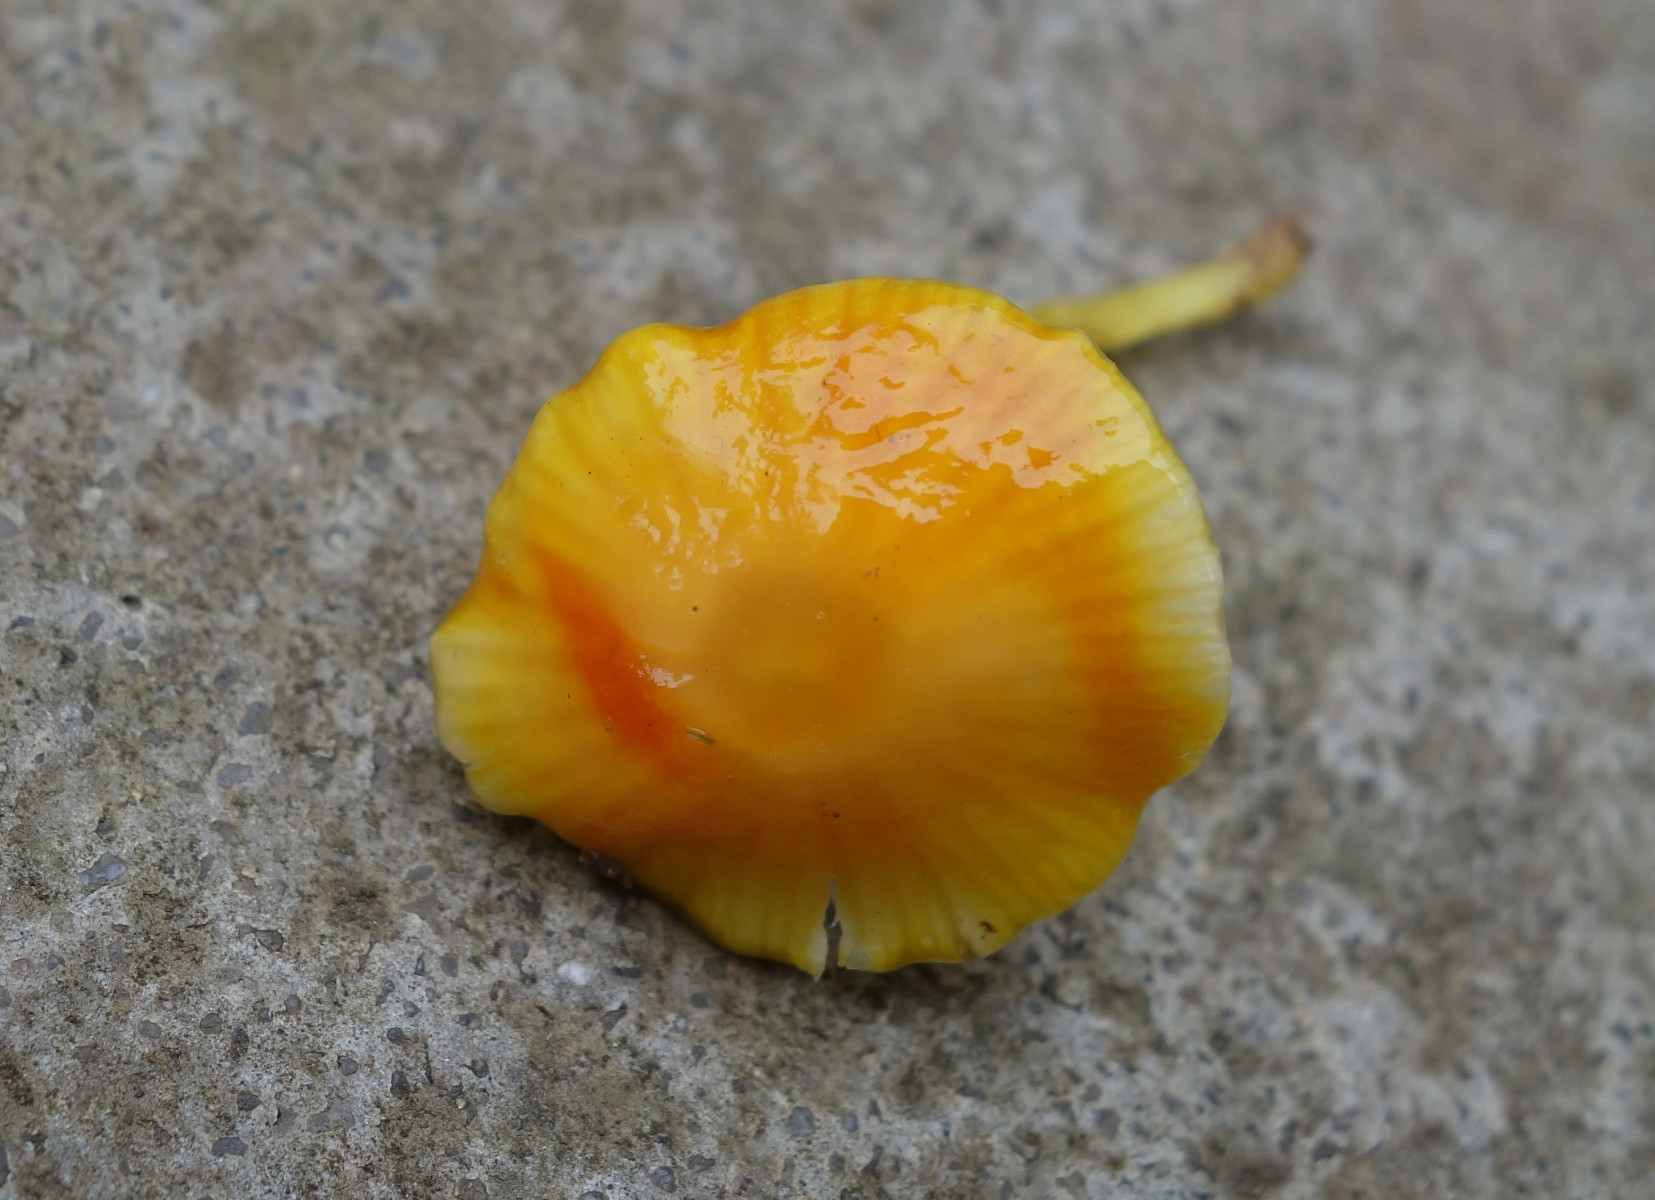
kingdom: Fungi
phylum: Basidiomycota
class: Agaricomycetes
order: Agaricales
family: Hygrophoraceae
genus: Hygrocybe
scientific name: Hygrocybe glutinipes
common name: slimstokket vokshat
